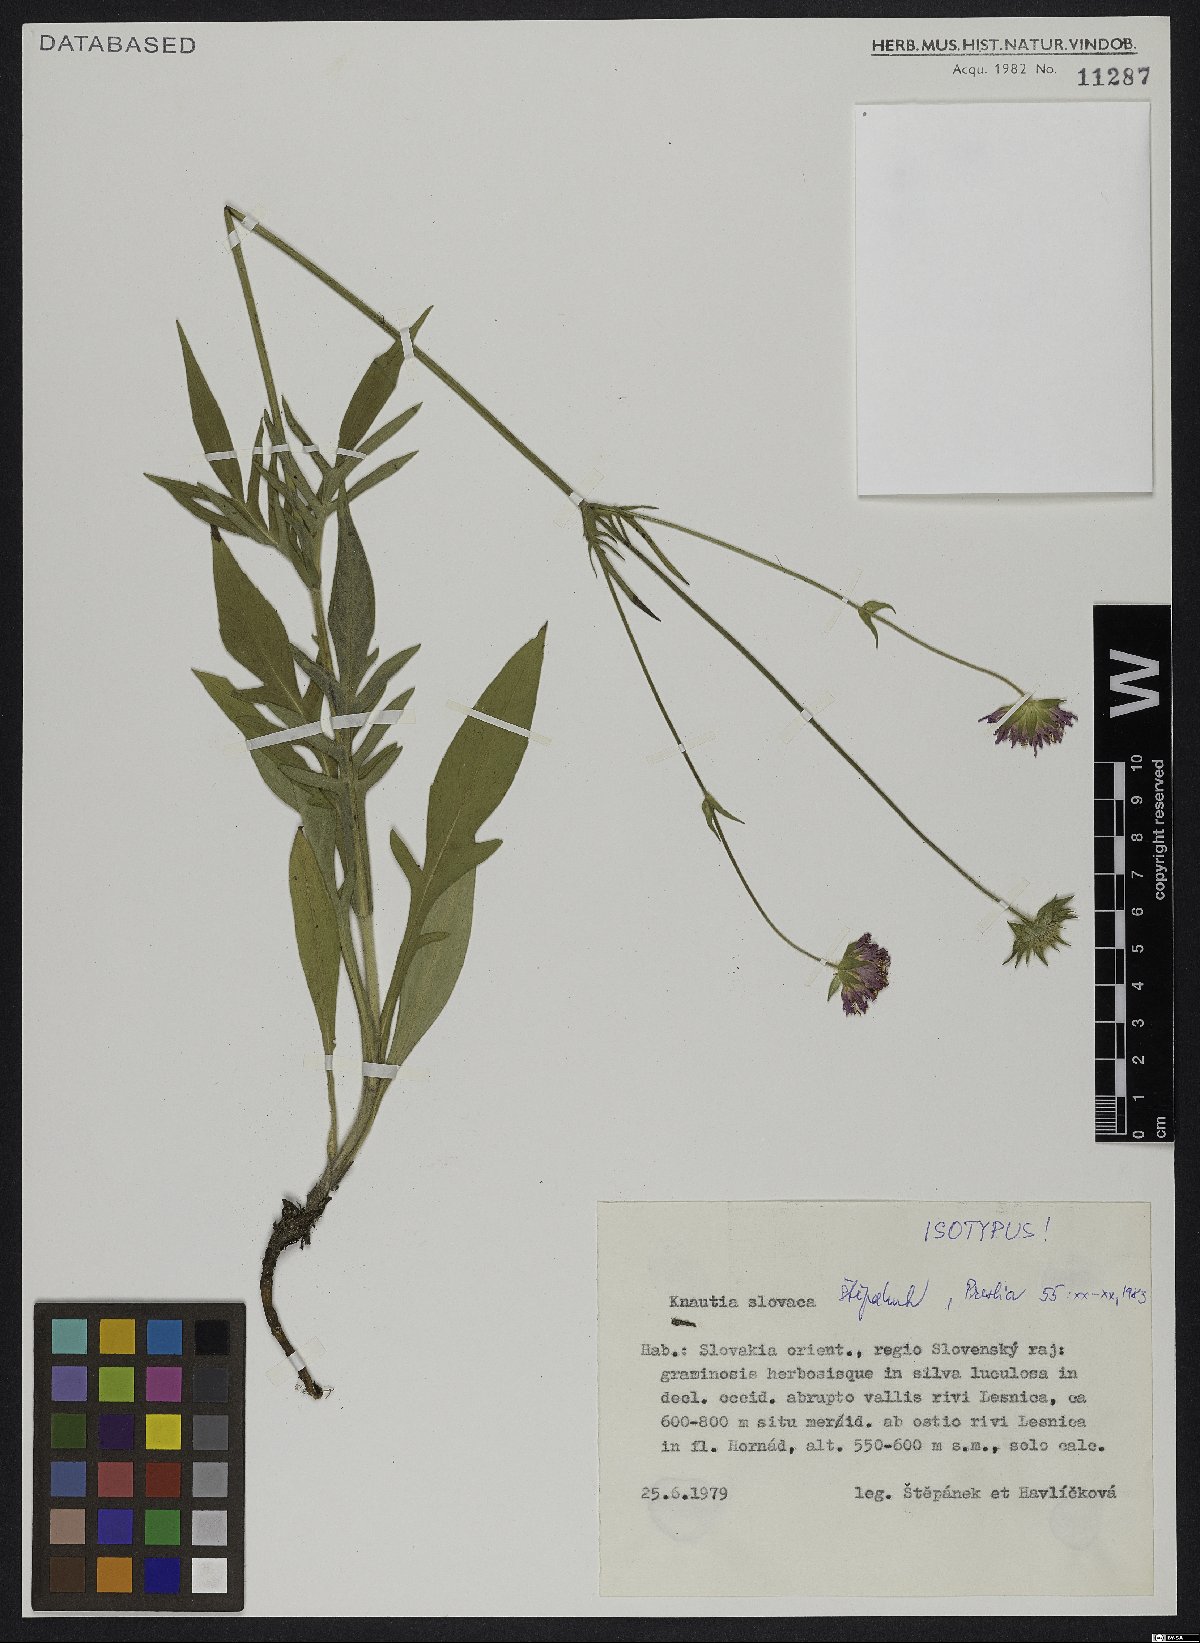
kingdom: Plantae
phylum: Tracheophyta
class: Magnoliopsida
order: Dipsacales
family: Caprifoliaceae
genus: Knautia
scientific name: Knautia slovaca
